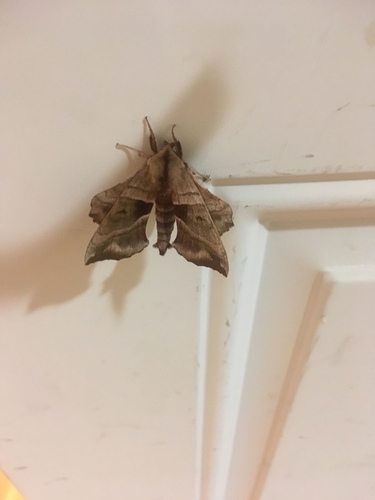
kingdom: Animalia
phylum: Arthropoda
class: Insecta
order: Lepidoptera
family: Sphingidae
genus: Amorpha
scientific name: Amorpha juglandis
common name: Walnut sphinx
